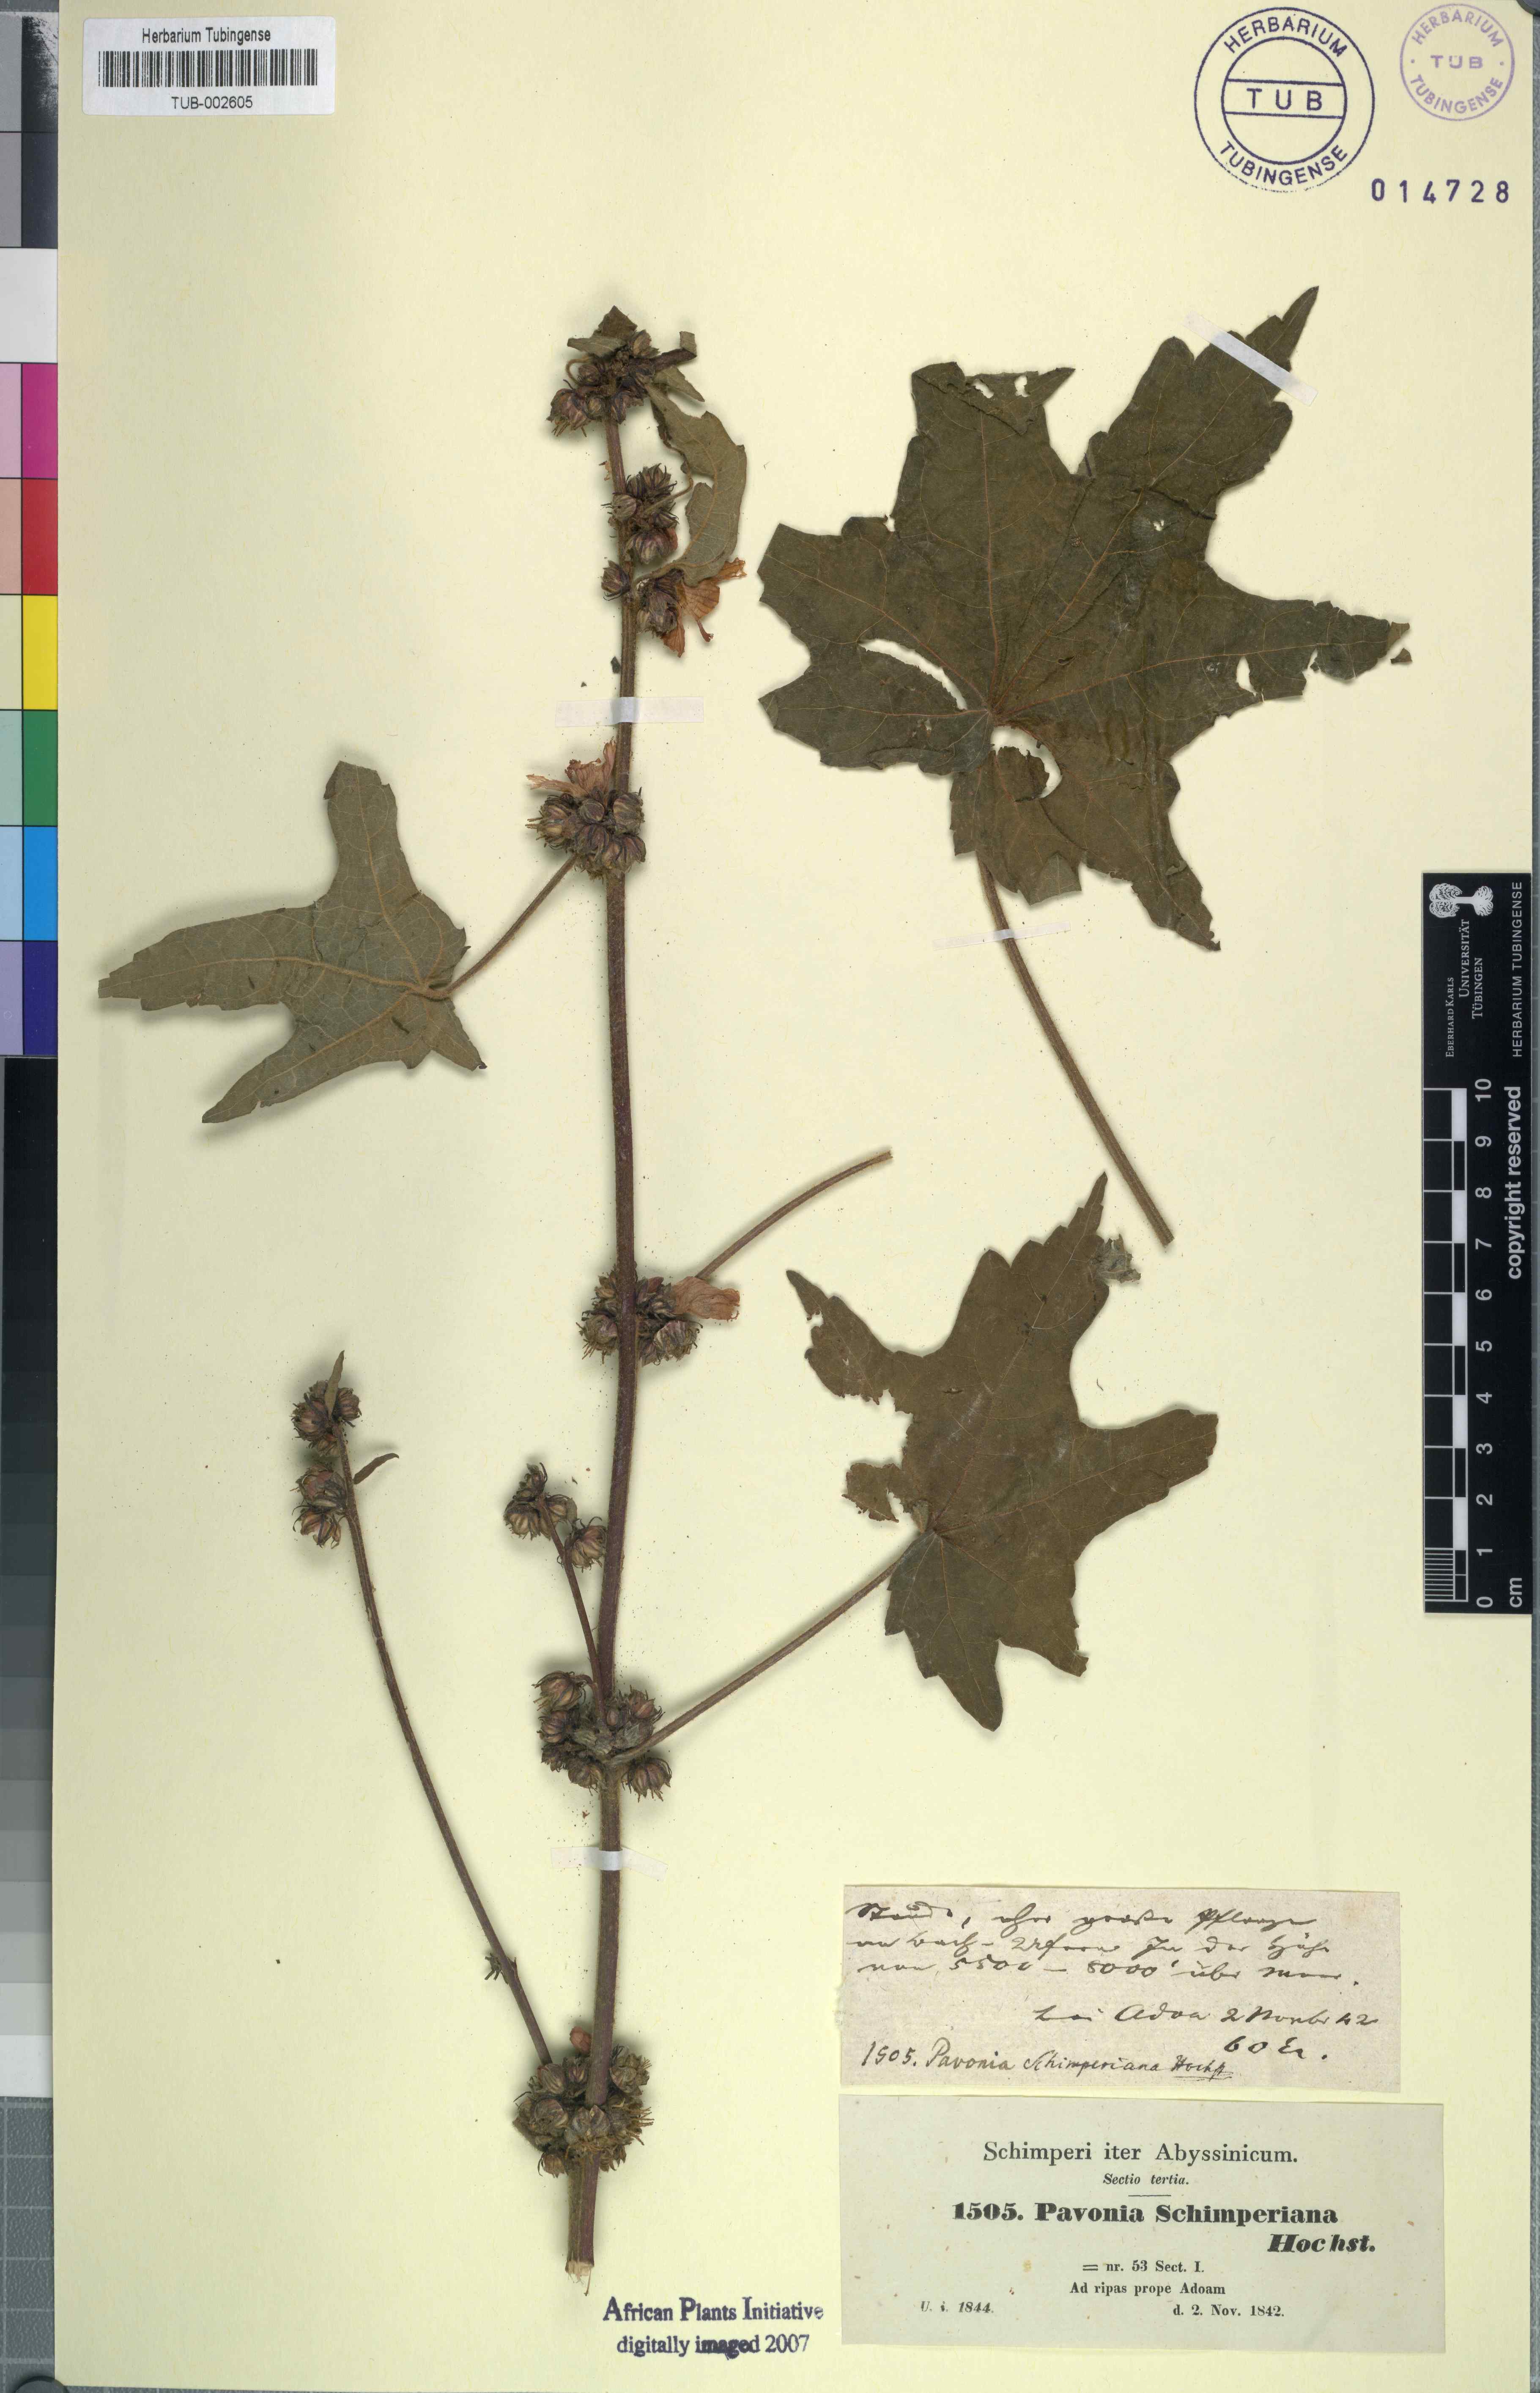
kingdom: Plantae
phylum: Tracheophyta
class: Magnoliopsida
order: Malvales
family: Malvaceae
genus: Pavonia
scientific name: Pavonia schimperiana
